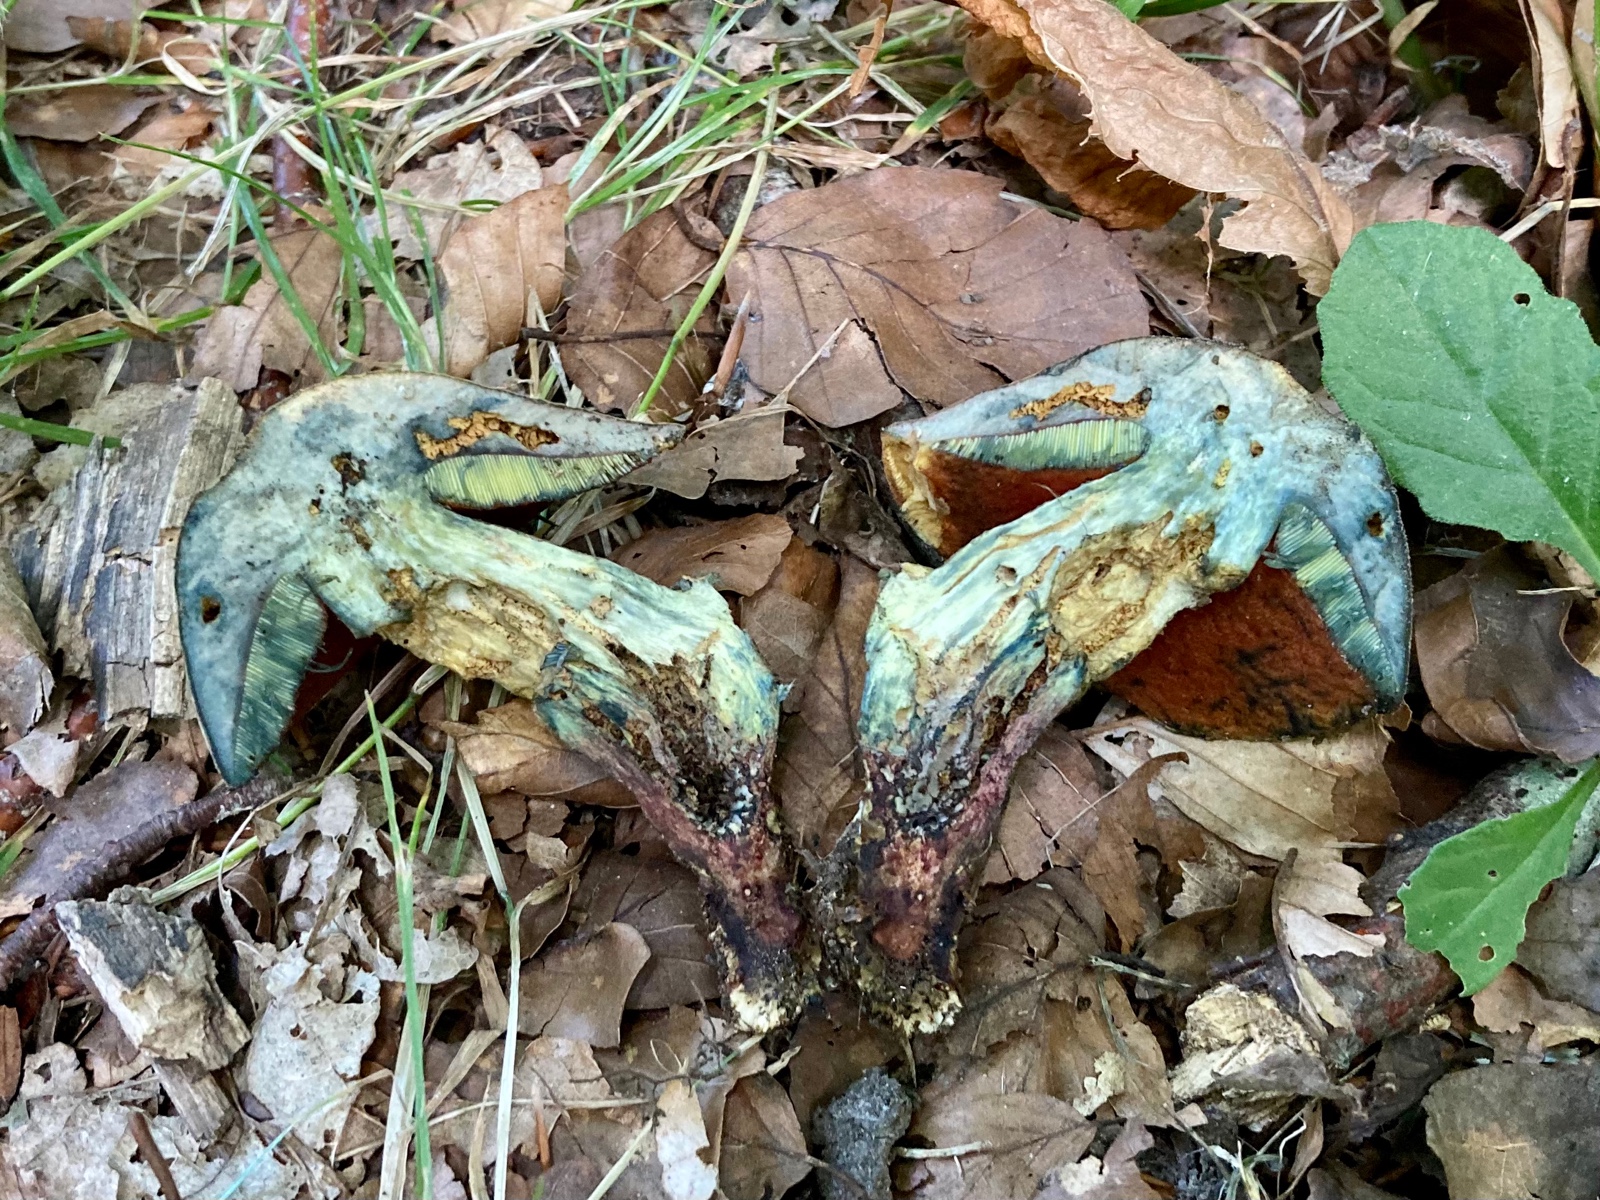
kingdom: Fungi
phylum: Basidiomycota
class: Agaricomycetes
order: Boletales
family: Boletaceae
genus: Suillellus
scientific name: Suillellus luridus
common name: netstokket indigorørhat
